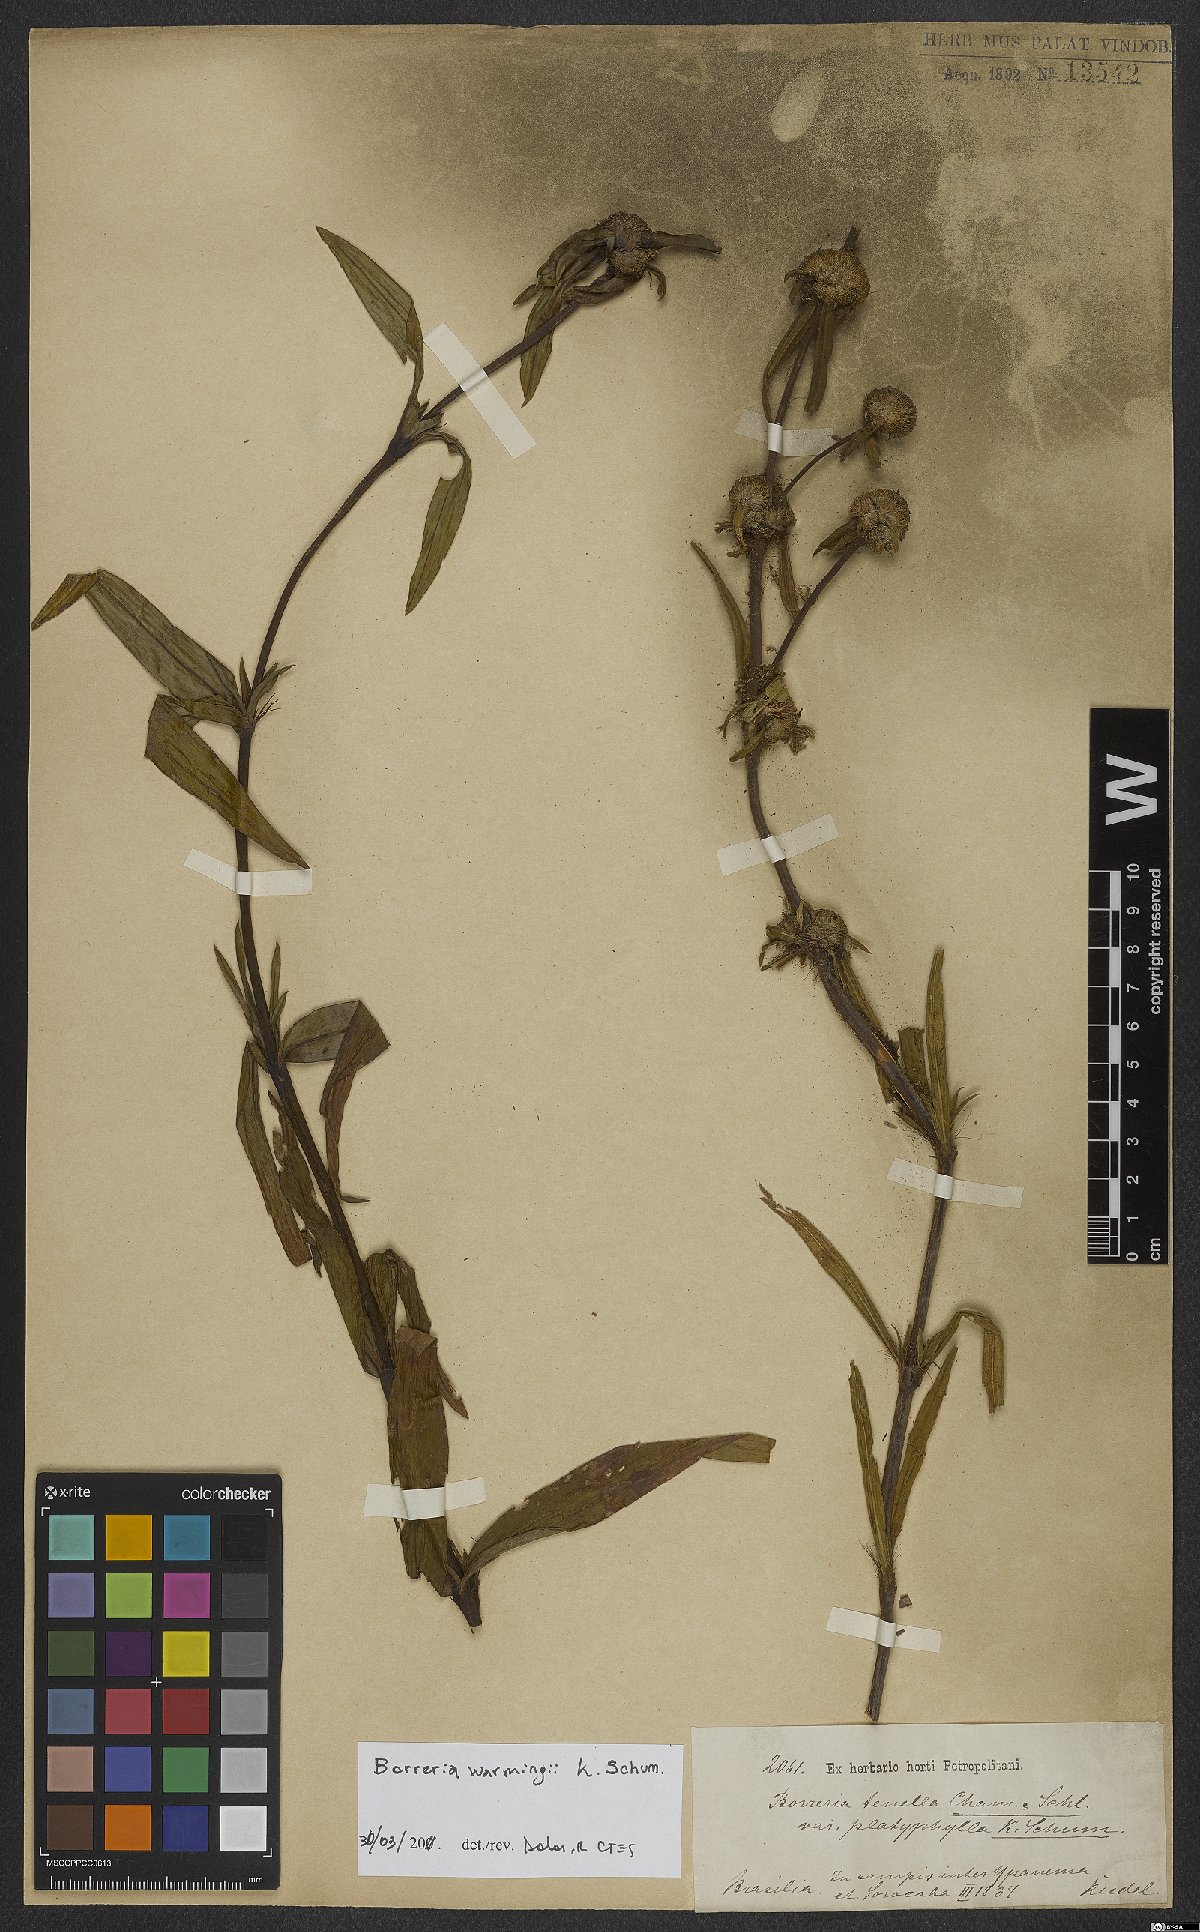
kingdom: Plantae
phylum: Tracheophyta
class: Magnoliopsida
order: Gentianales
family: Rubiaceae
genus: Spermacoce
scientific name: Spermacoce warmingii
